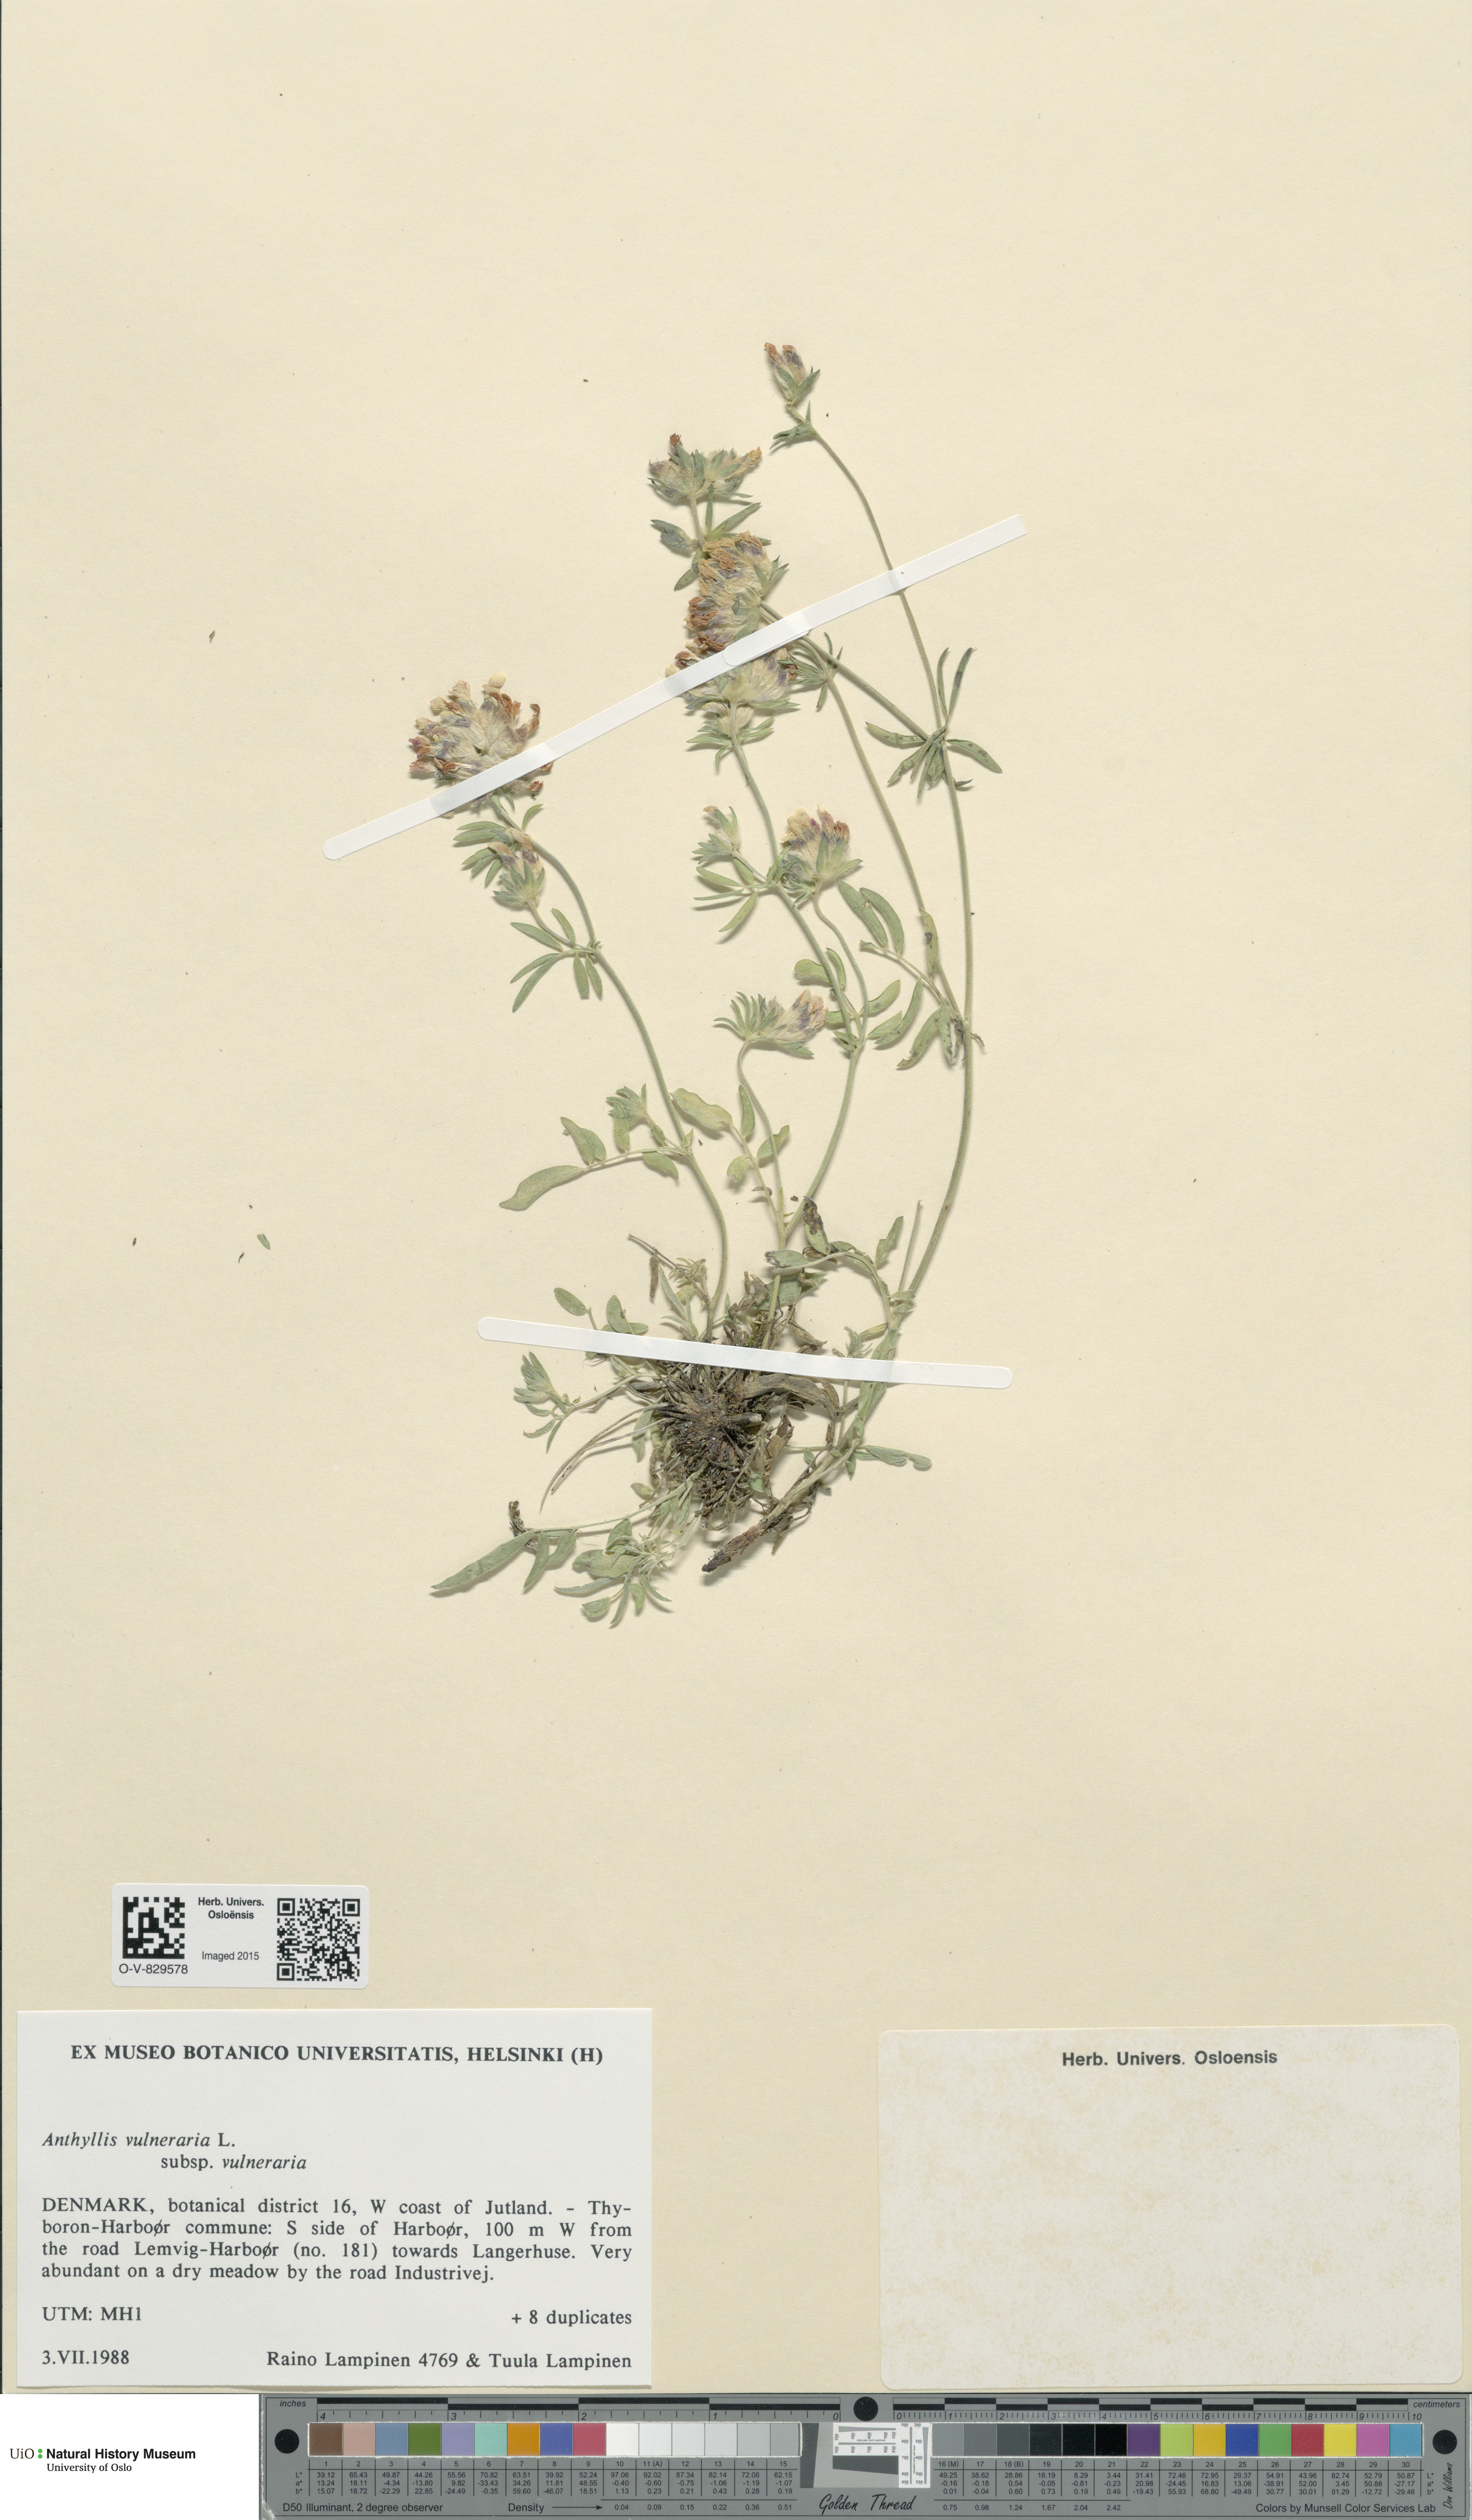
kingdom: Plantae
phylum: Tracheophyta
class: Magnoliopsida
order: Fabales
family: Fabaceae
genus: Anthyllis
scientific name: Anthyllis vulneraria
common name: Kidney vetch
